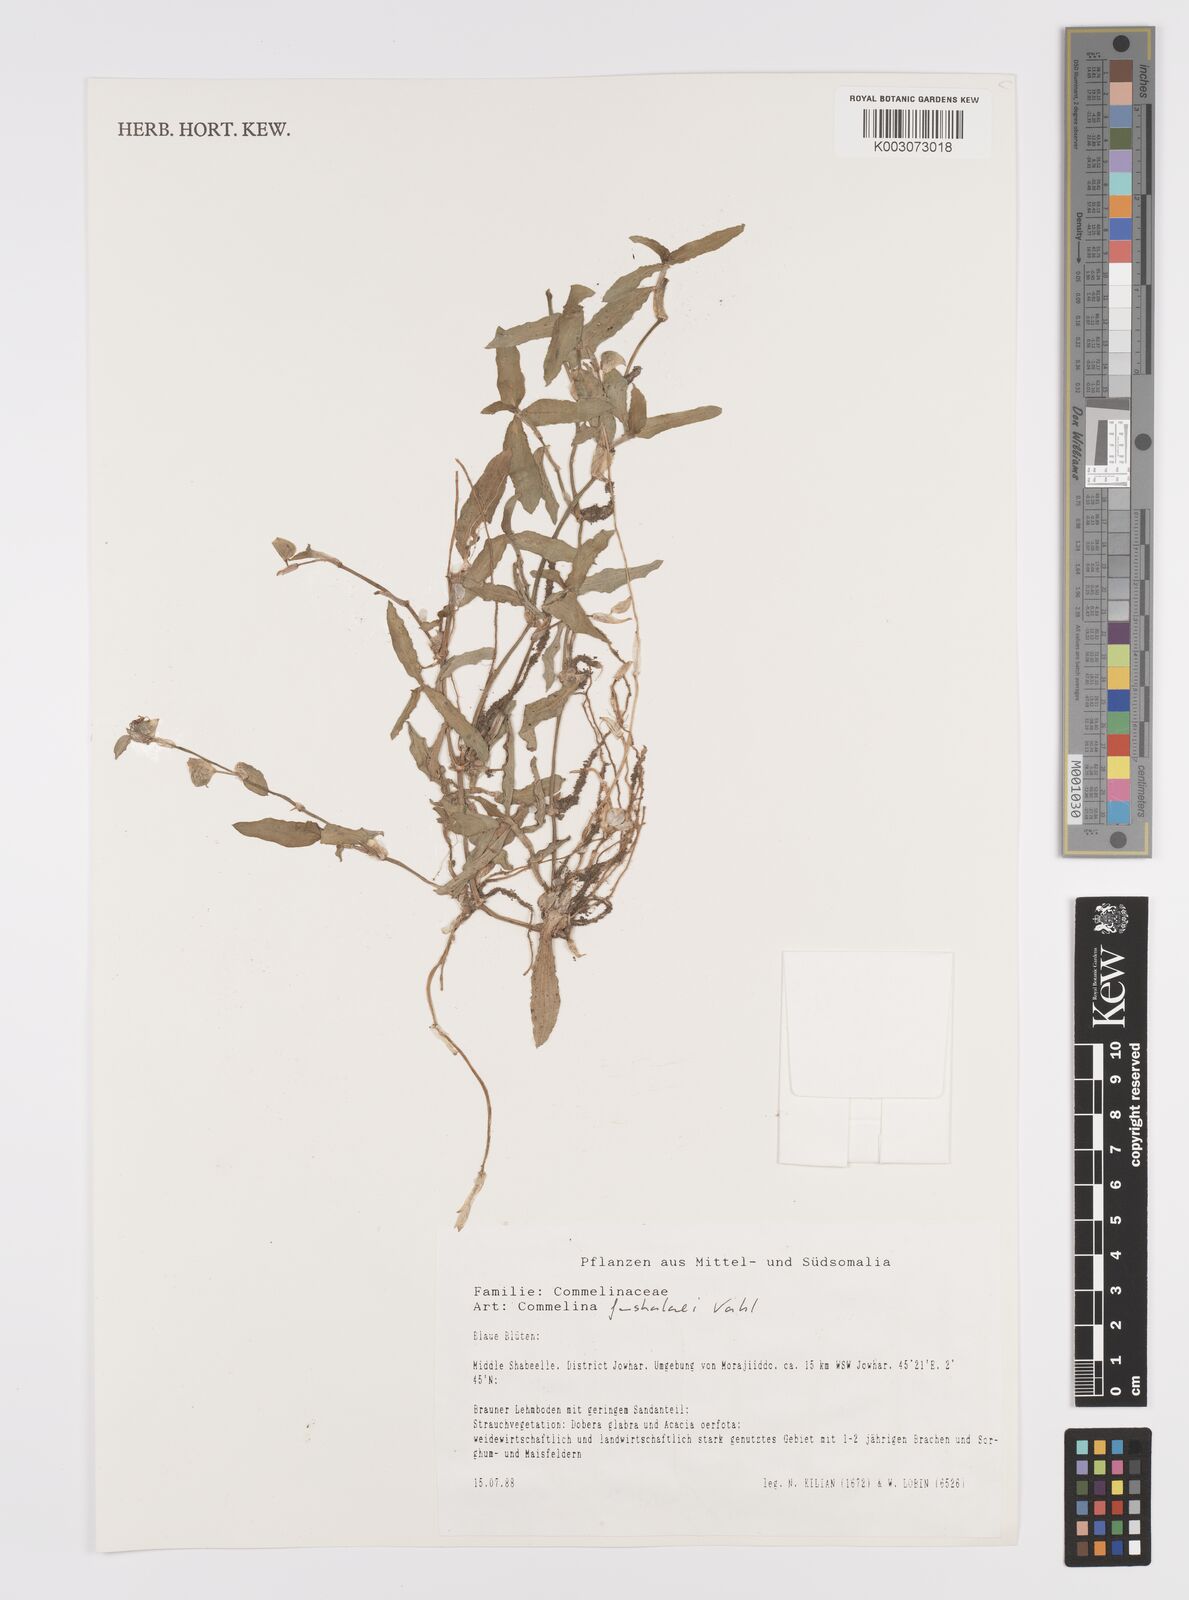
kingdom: Plantae
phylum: Tracheophyta
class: Liliopsida
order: Commelinales
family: Commelinaceae
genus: Commelina
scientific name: Commelina forskaolii
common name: Rat's ear
